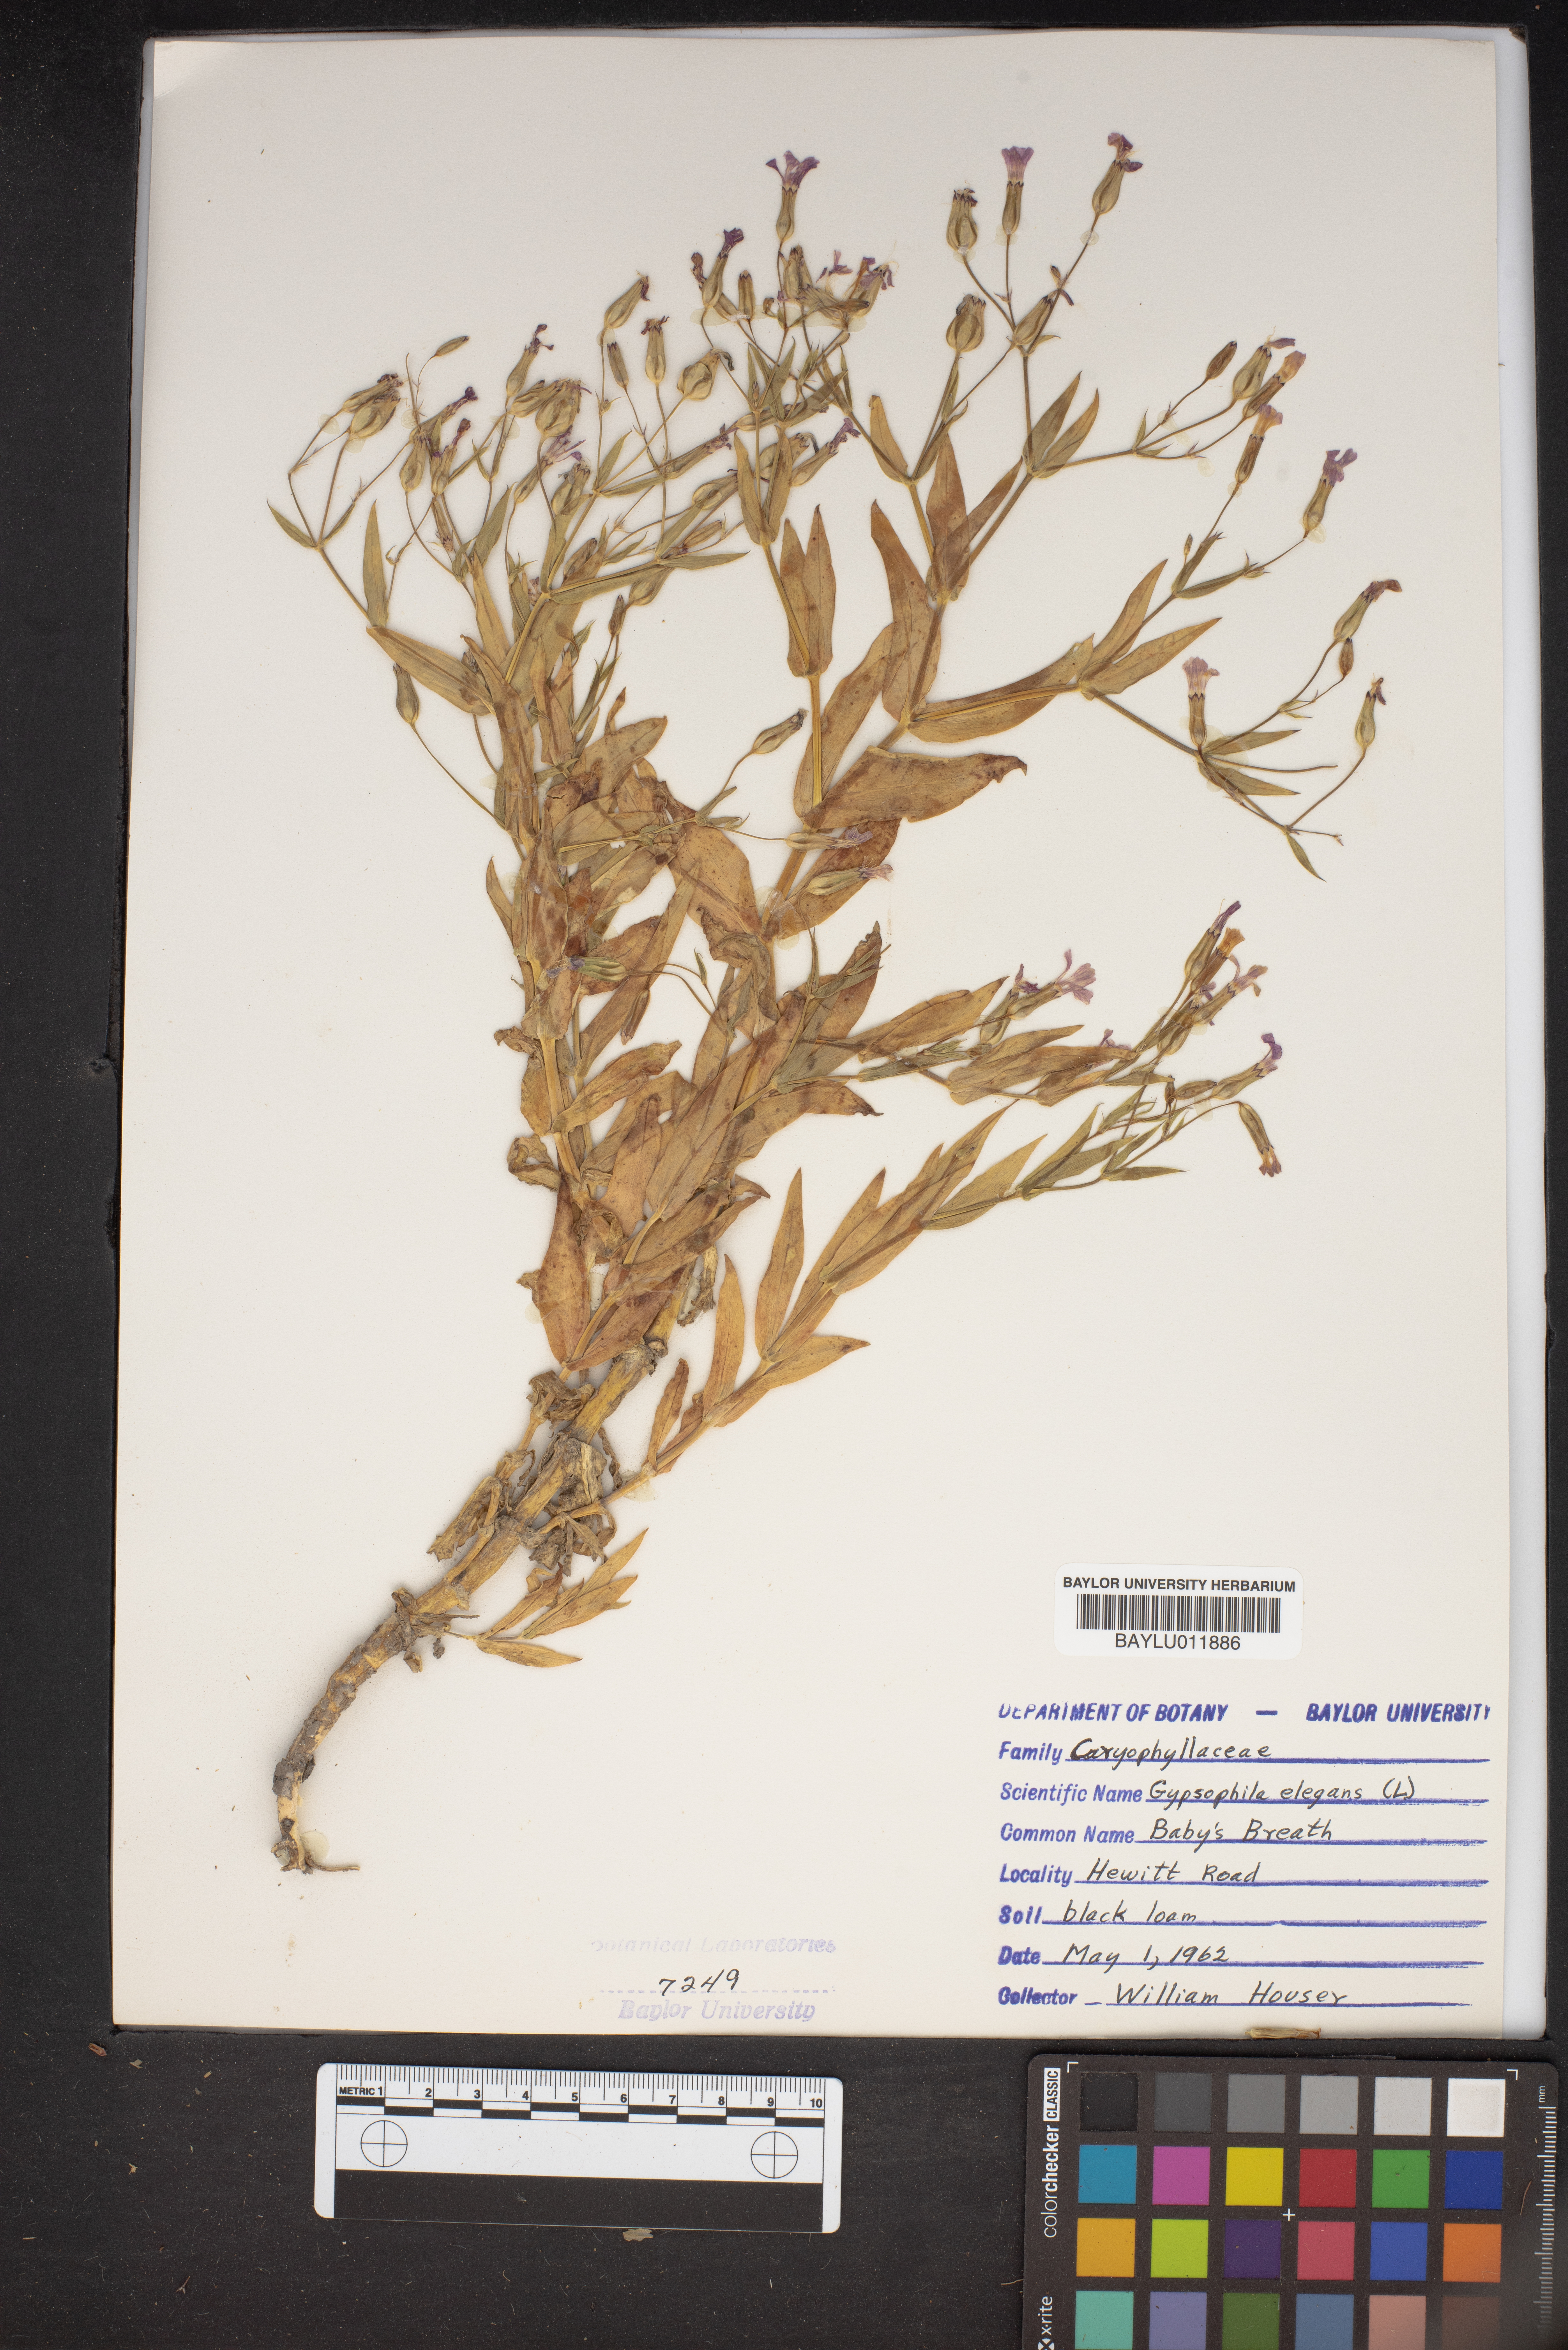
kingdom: Plantae
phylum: Tracheophyta
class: Magnoliopsida
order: Caryophyllales
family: Caryophyllaceae
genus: Gypsophila
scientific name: Gypsophila elegans
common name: Showy baby's-breath
